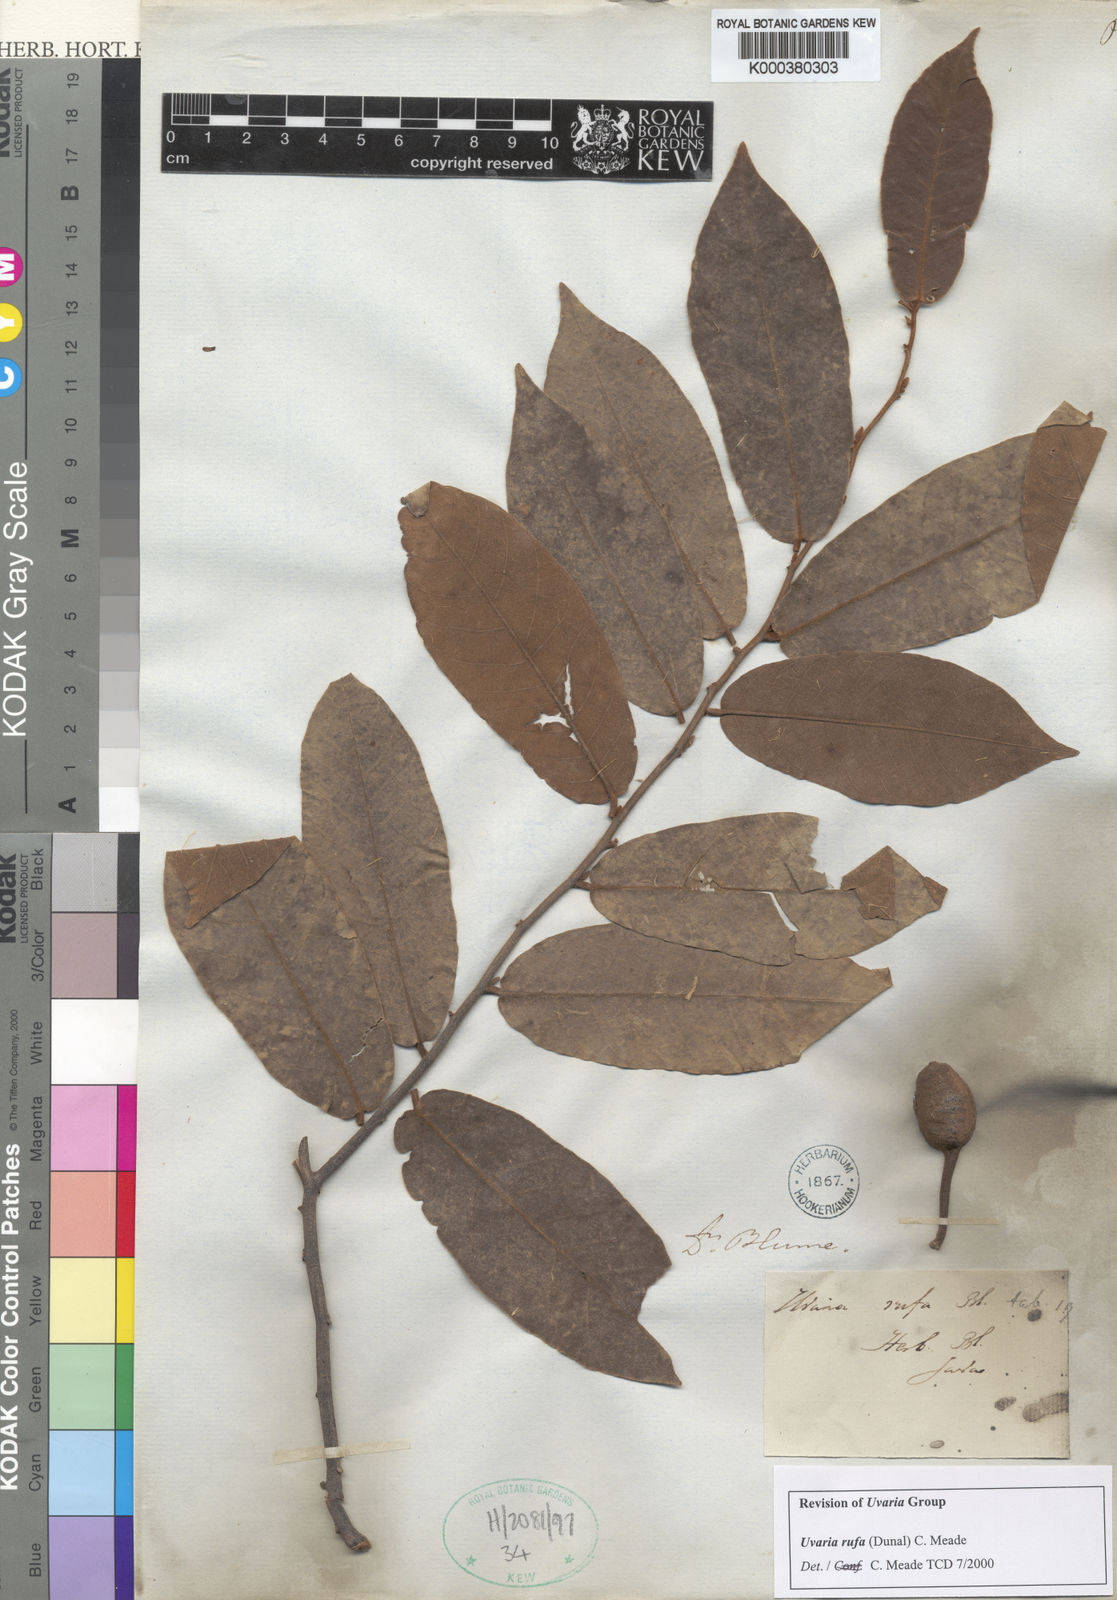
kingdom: Plantae
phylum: Tracheophyta
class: Magnoliopsida
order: Magnoliales
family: Annonaceae
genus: Uvaria
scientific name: Uvaria rufa
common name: Torres strait scrambler
